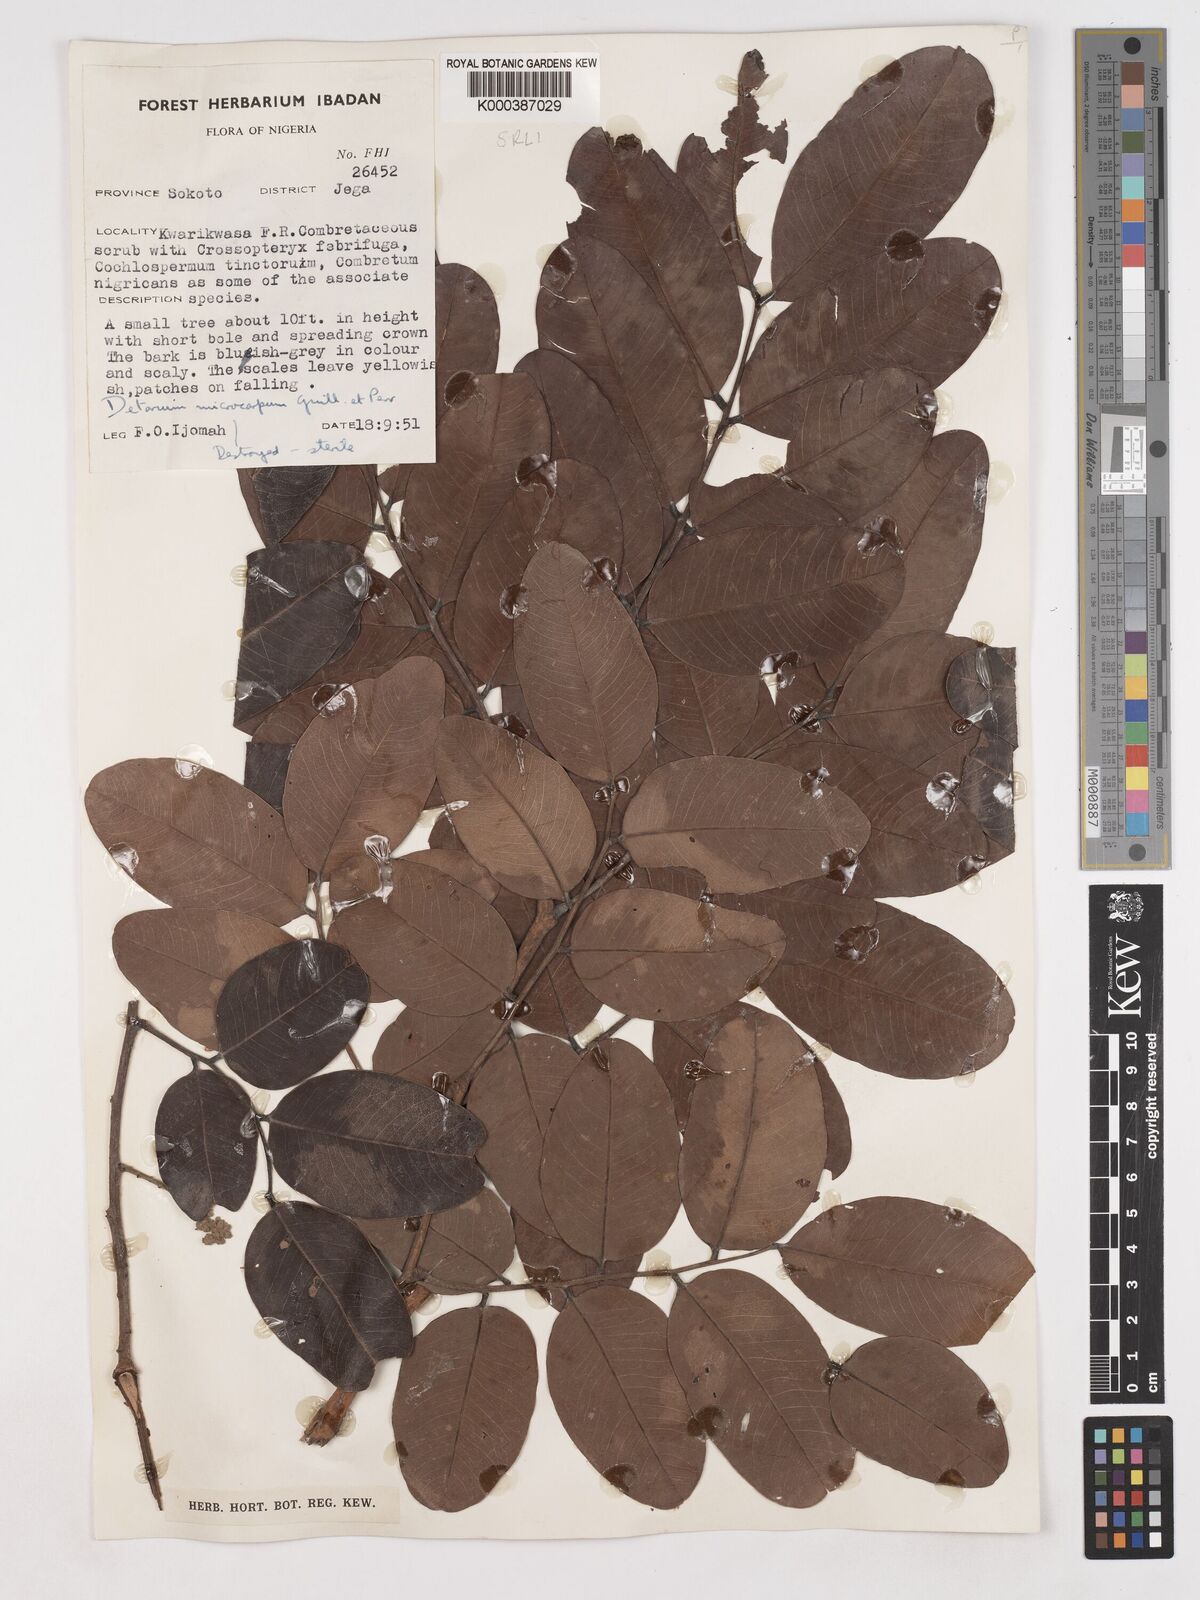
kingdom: Plantae
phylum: Tracheophyta
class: Magnoliopsida
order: Fabales
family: Fabaceae
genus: Detarium
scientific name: Detarium microcarpum
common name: Sweet dattock
